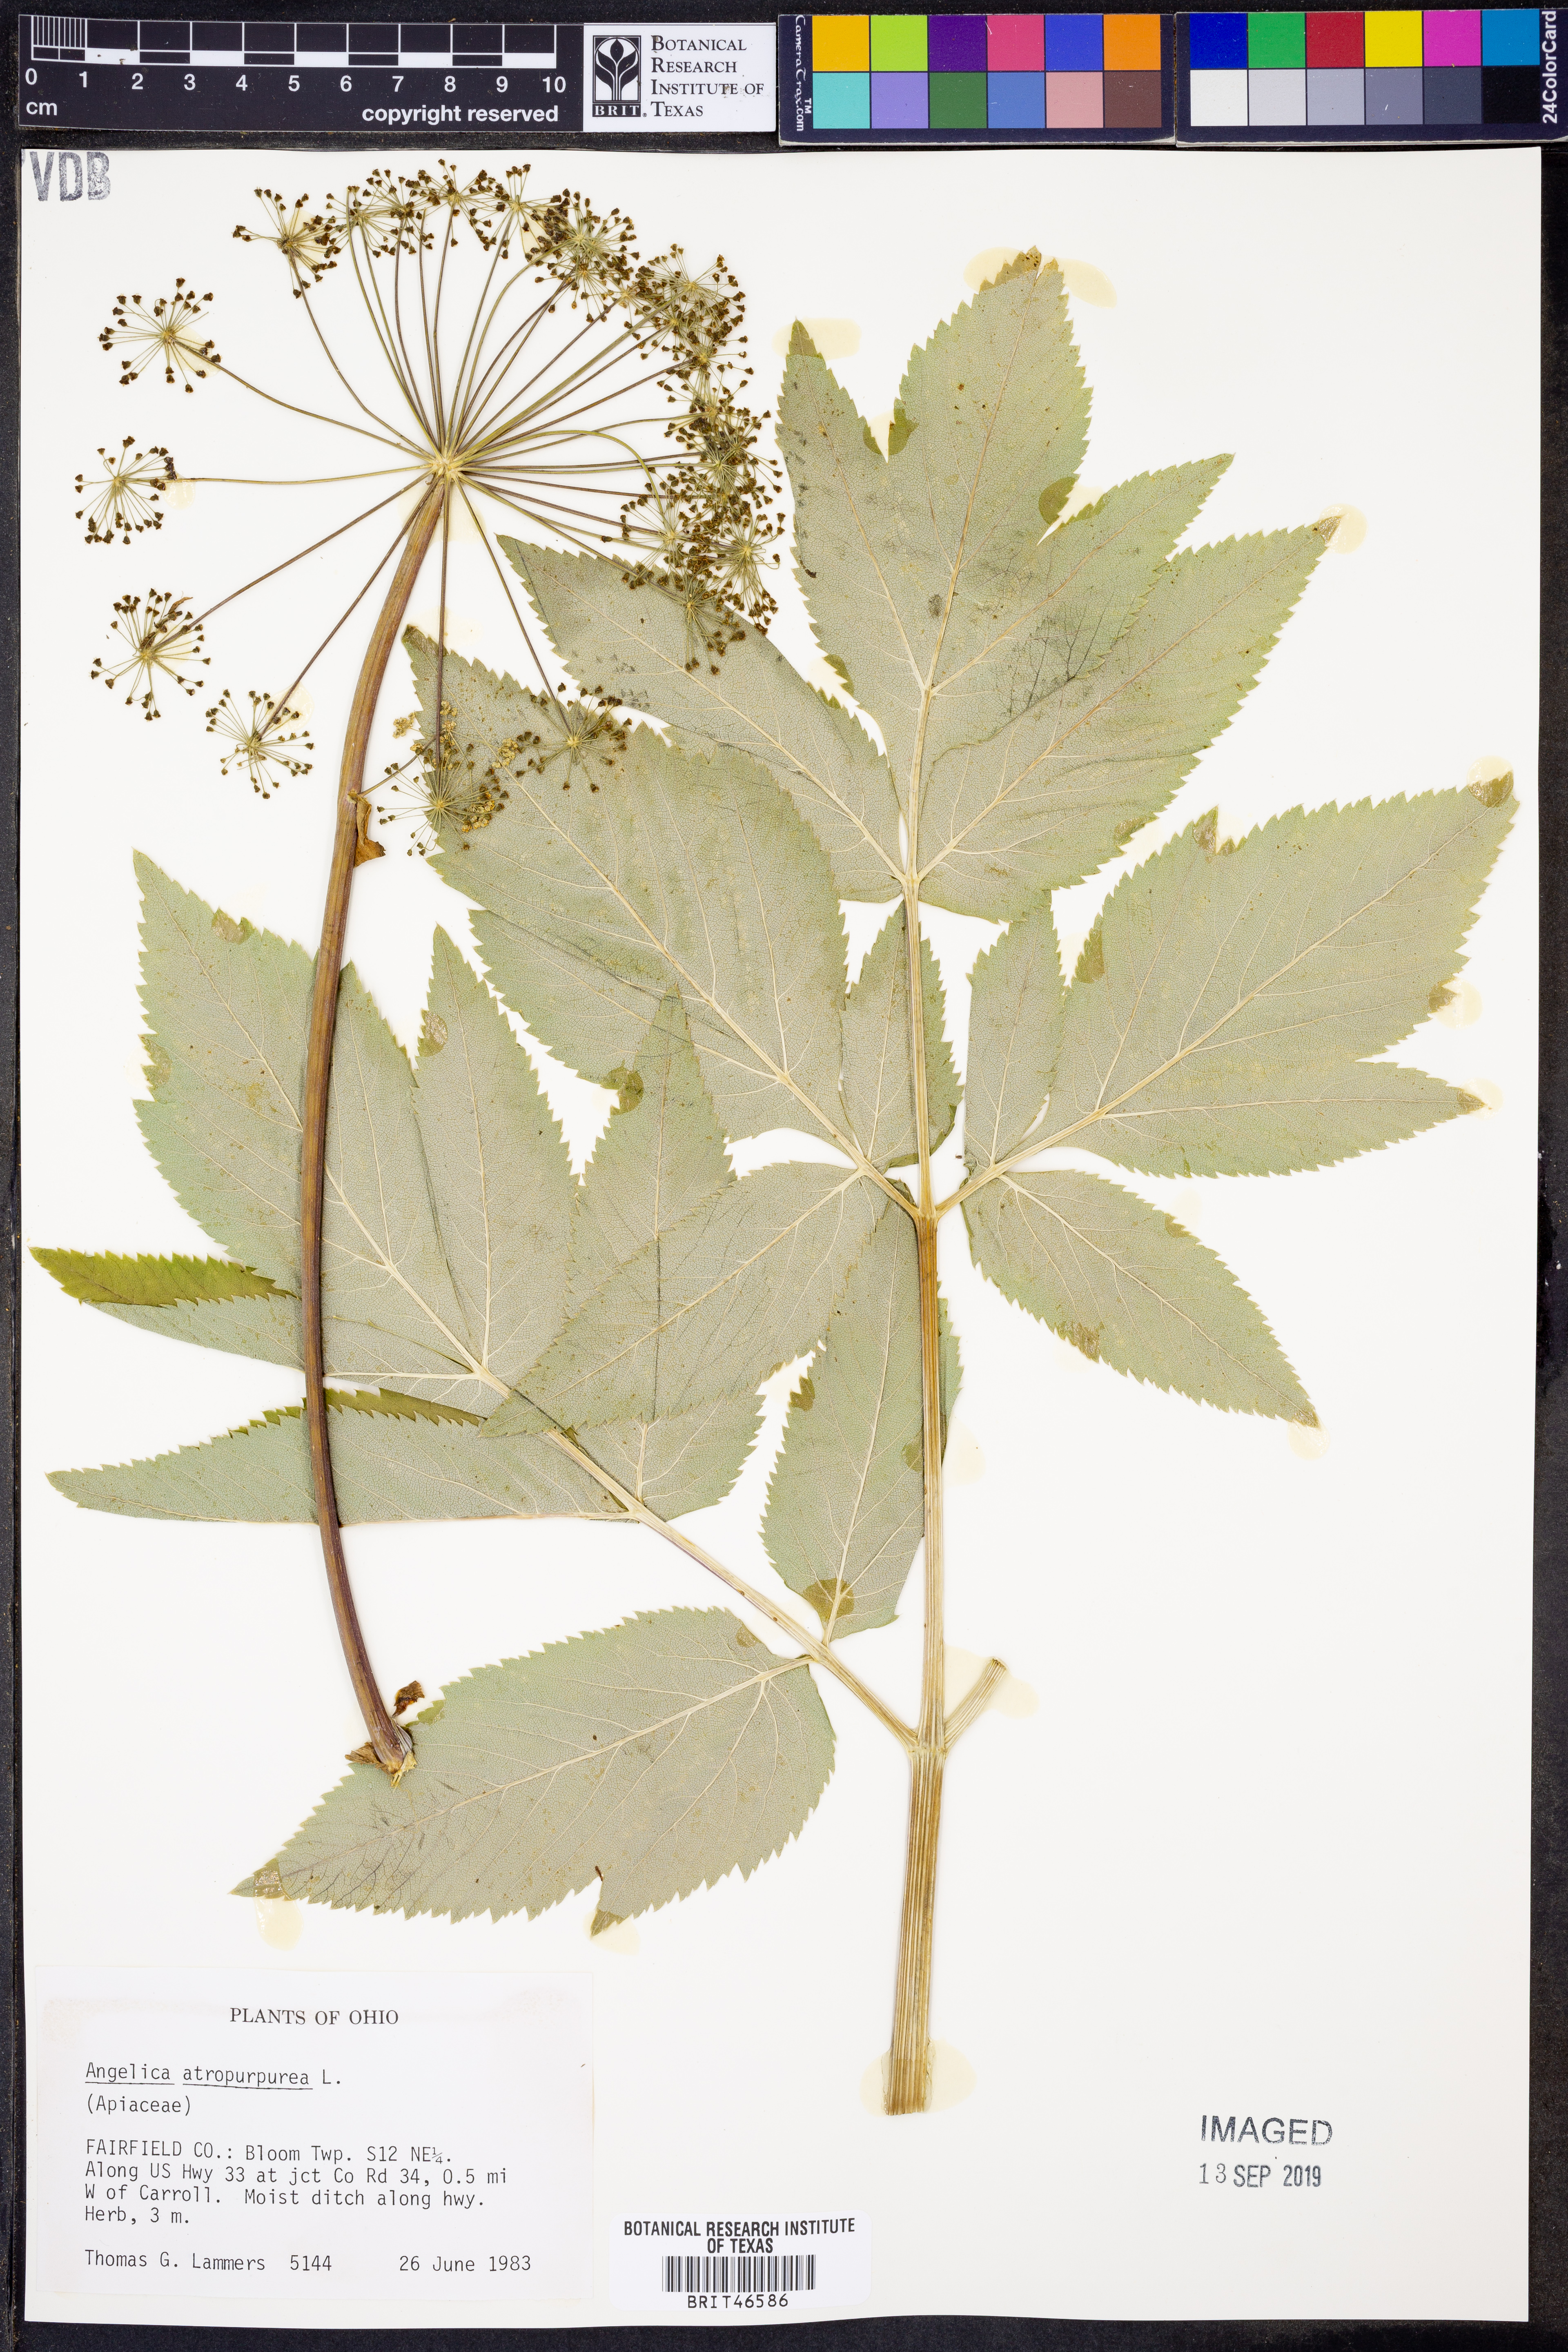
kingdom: Plantae
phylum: Tracheophyta
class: Magnoliopsida
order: Apiales
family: Apiaceae
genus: Angelica
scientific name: Angelica atropurpurea
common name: Great angelica
